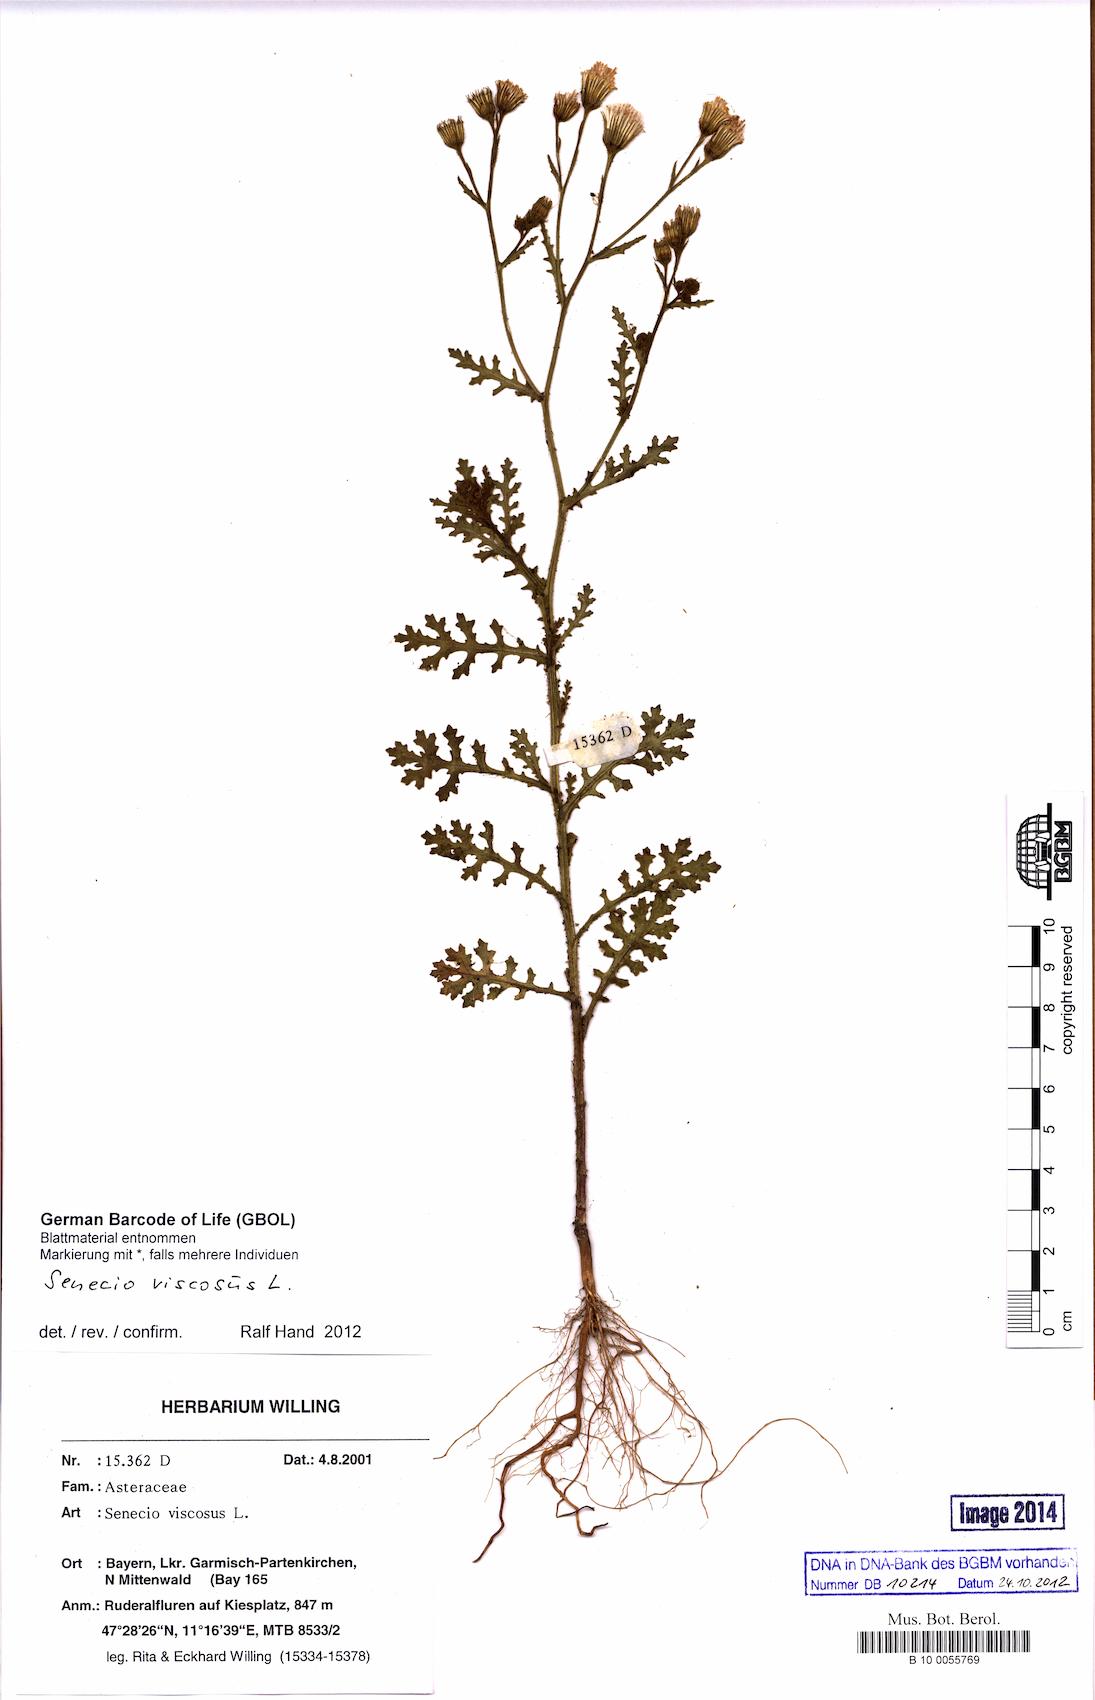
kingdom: Plantae
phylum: Tracheophyta
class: Magnoliopsida
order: Asterales
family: Asteraceae
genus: Senecio
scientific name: Senecio viscosus
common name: Sticky groundsel
